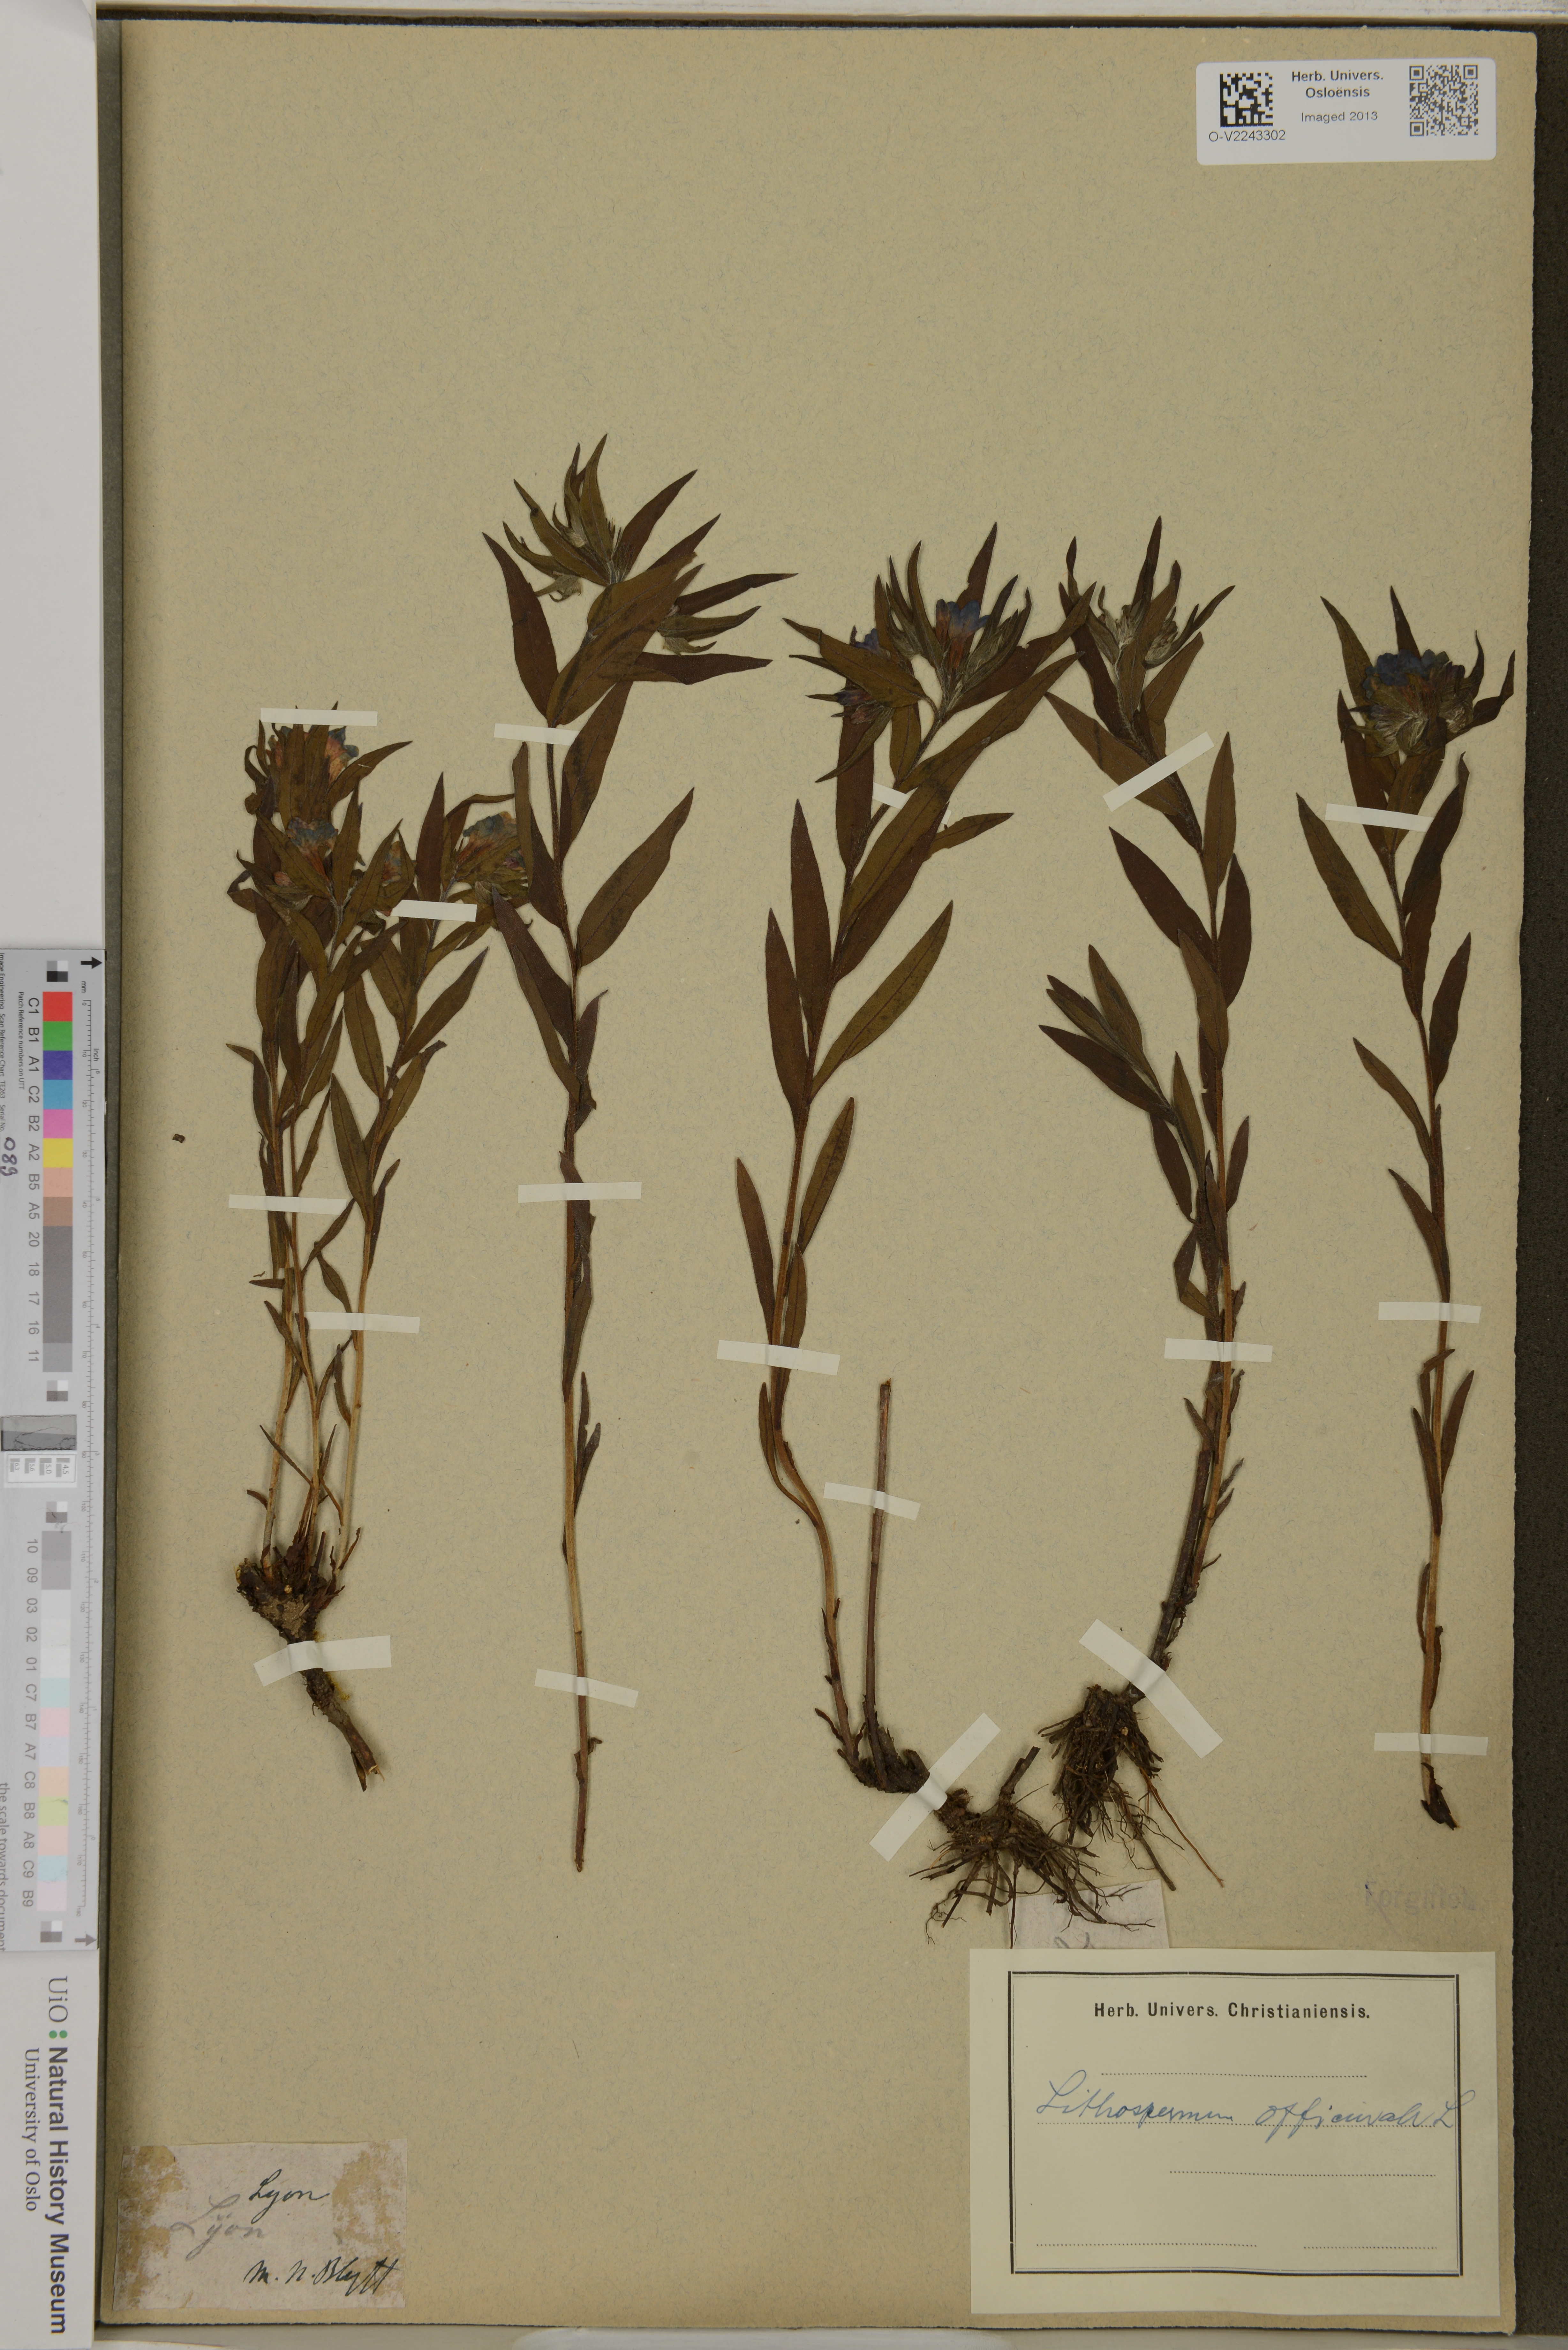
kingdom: Plantae
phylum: Tracheophyta
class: Magnoliopsida
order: Boraginales
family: Boraginaceae
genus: Lithospermum
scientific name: Lithospermum officinale
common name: Common gromwell
